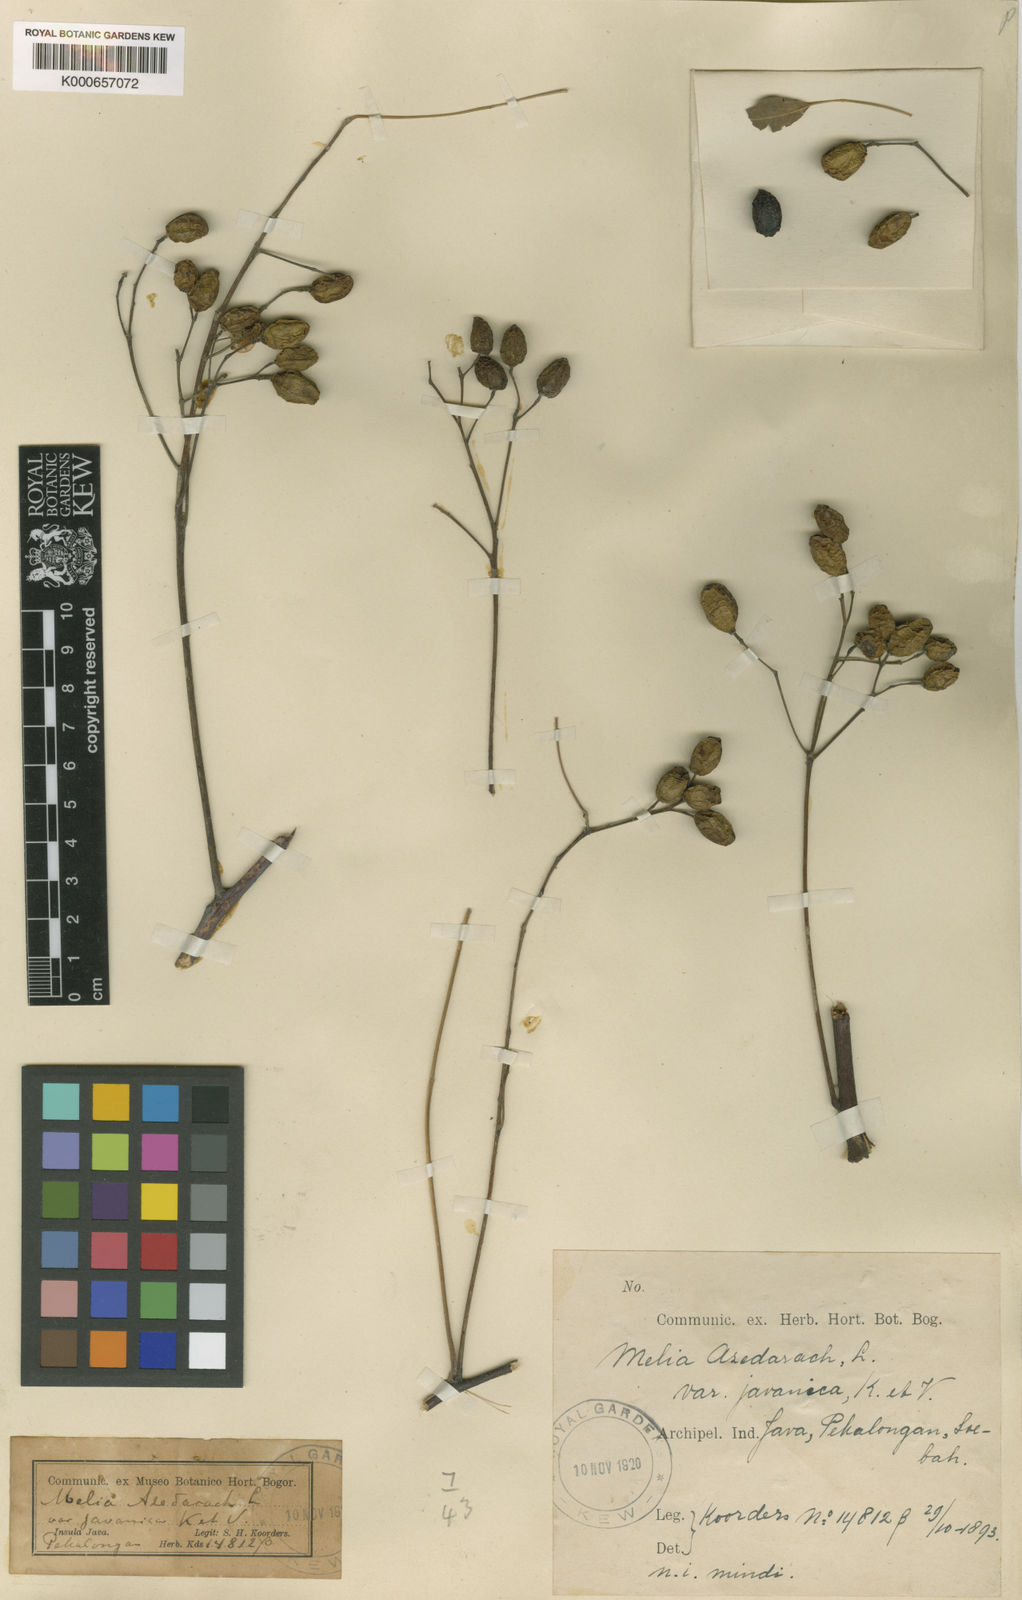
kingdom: Plantae
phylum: Tracheophyta
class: Magnoliopsida
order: Sapindales
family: Meliaceae
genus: Melia
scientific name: Melia azedarach
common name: Chinaberrytree
